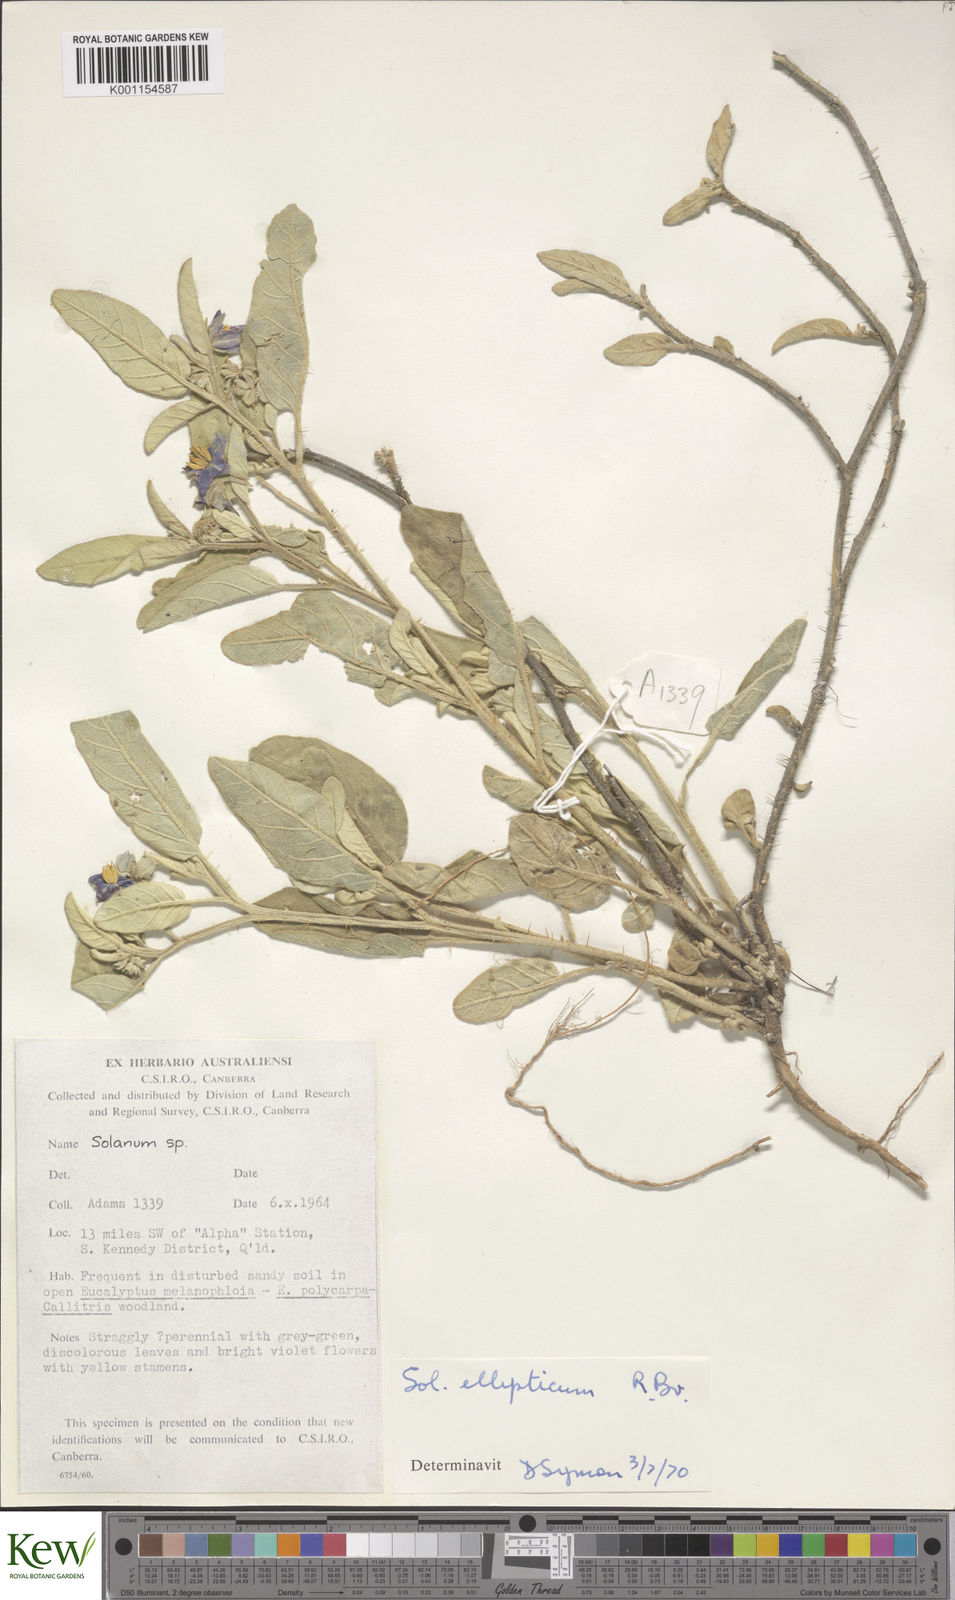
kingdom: Plantae
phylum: Tracheophyta
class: Magnoliopsida
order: Solanales
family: Solanaceae
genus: Solanum
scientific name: Solanum ellipticum
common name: Potato-bush
